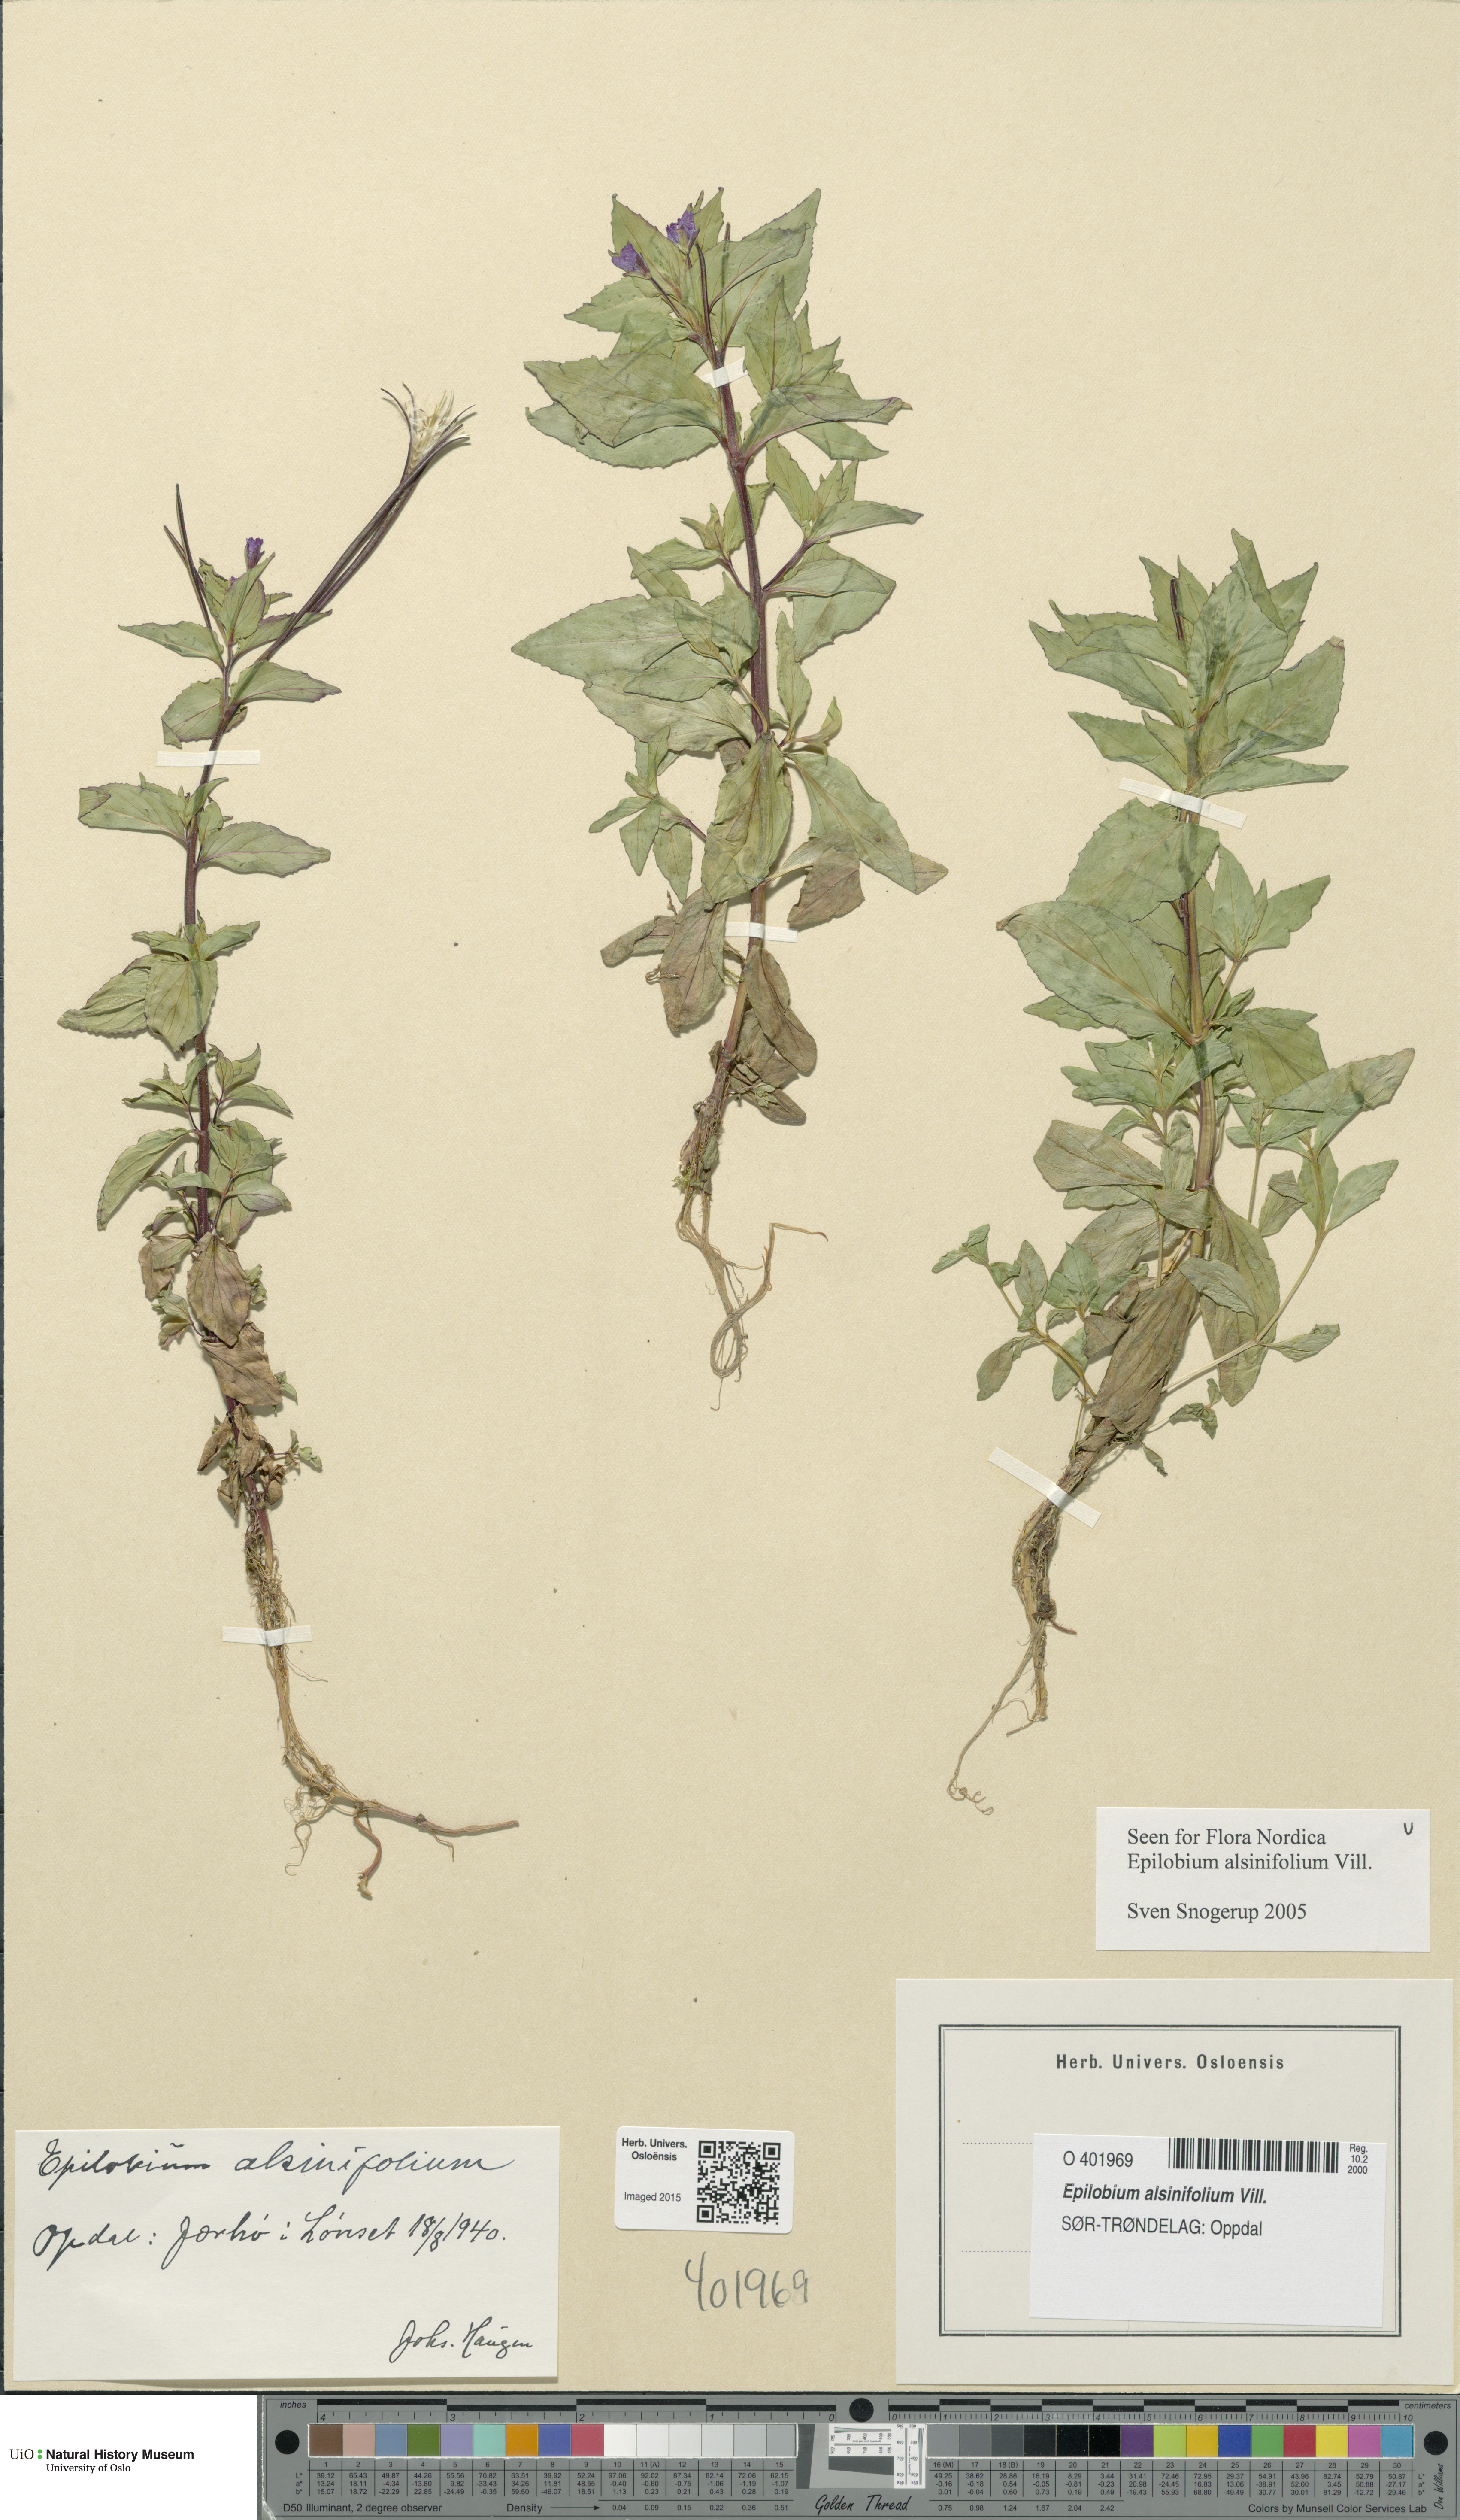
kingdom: Plantae
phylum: Tracheophyta
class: Magnoliopsida
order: Myrtales
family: Onagraceae
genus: Epilobium
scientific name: Epilobium alsinifolium
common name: Chickweed willowherb
